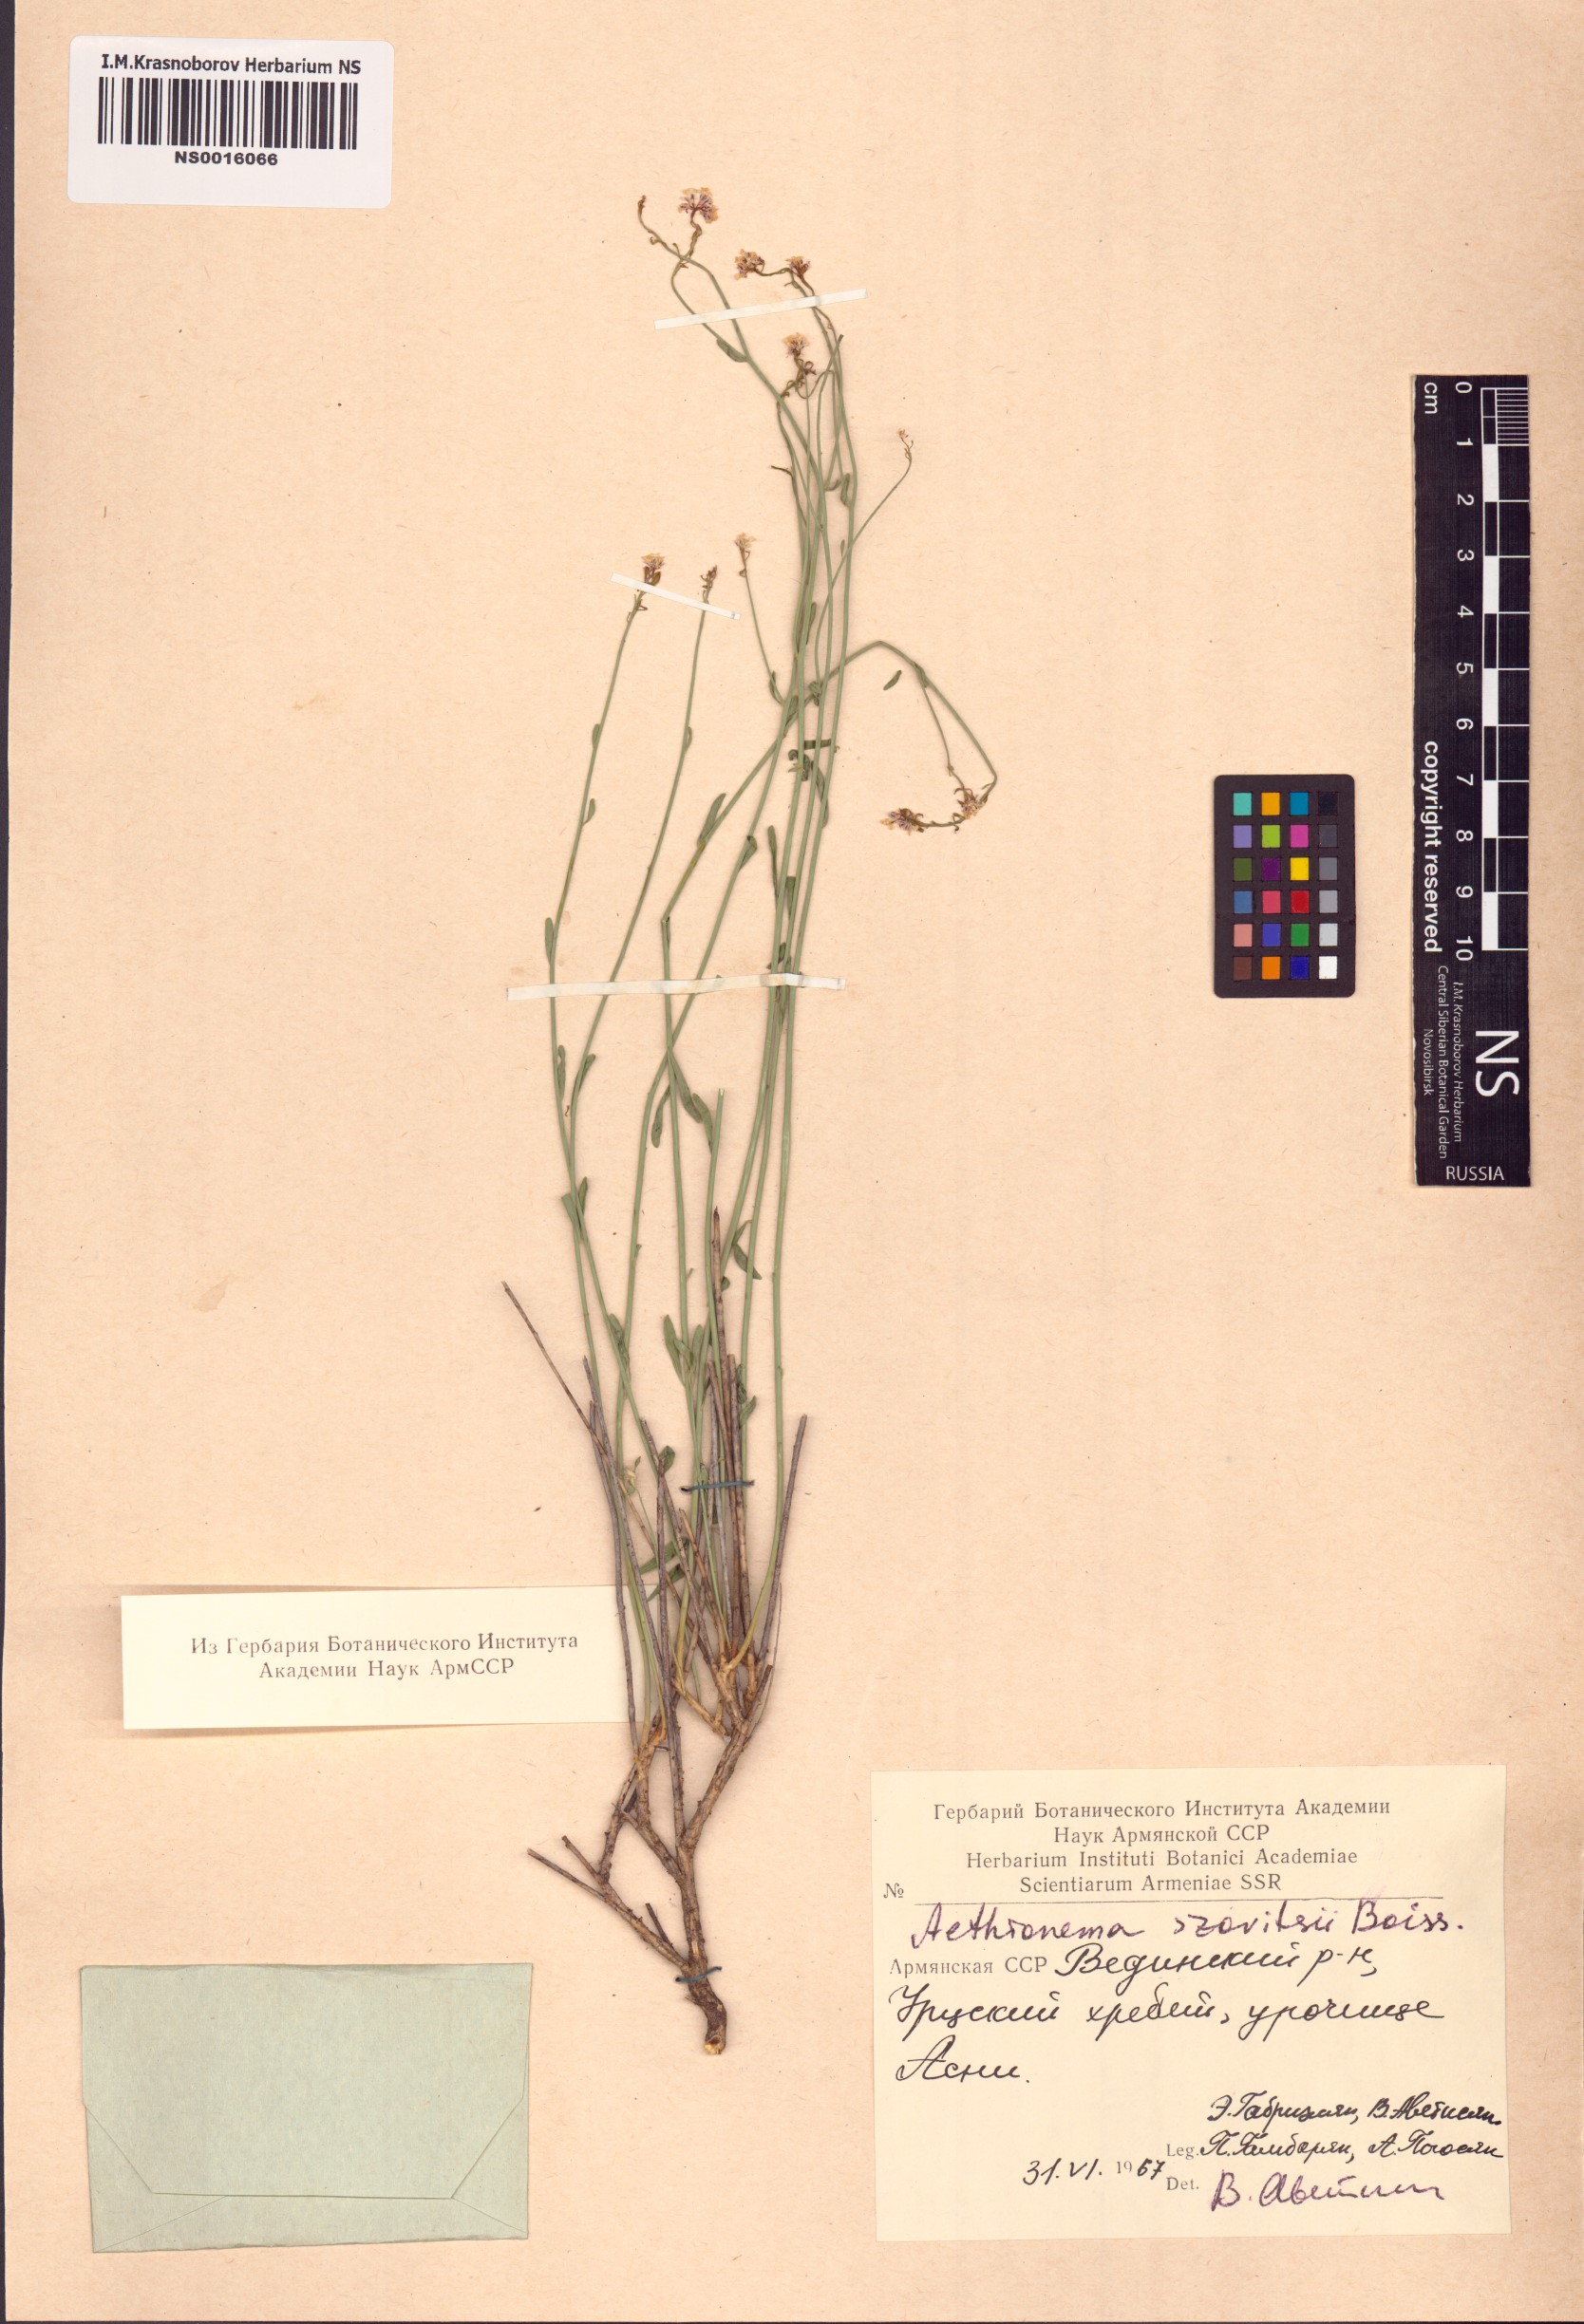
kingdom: Plantae
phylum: Tracheophyta
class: Magnoliopsida
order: Brassicales
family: Brassicaceae
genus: Aethionema
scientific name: Aethionema virgatum
